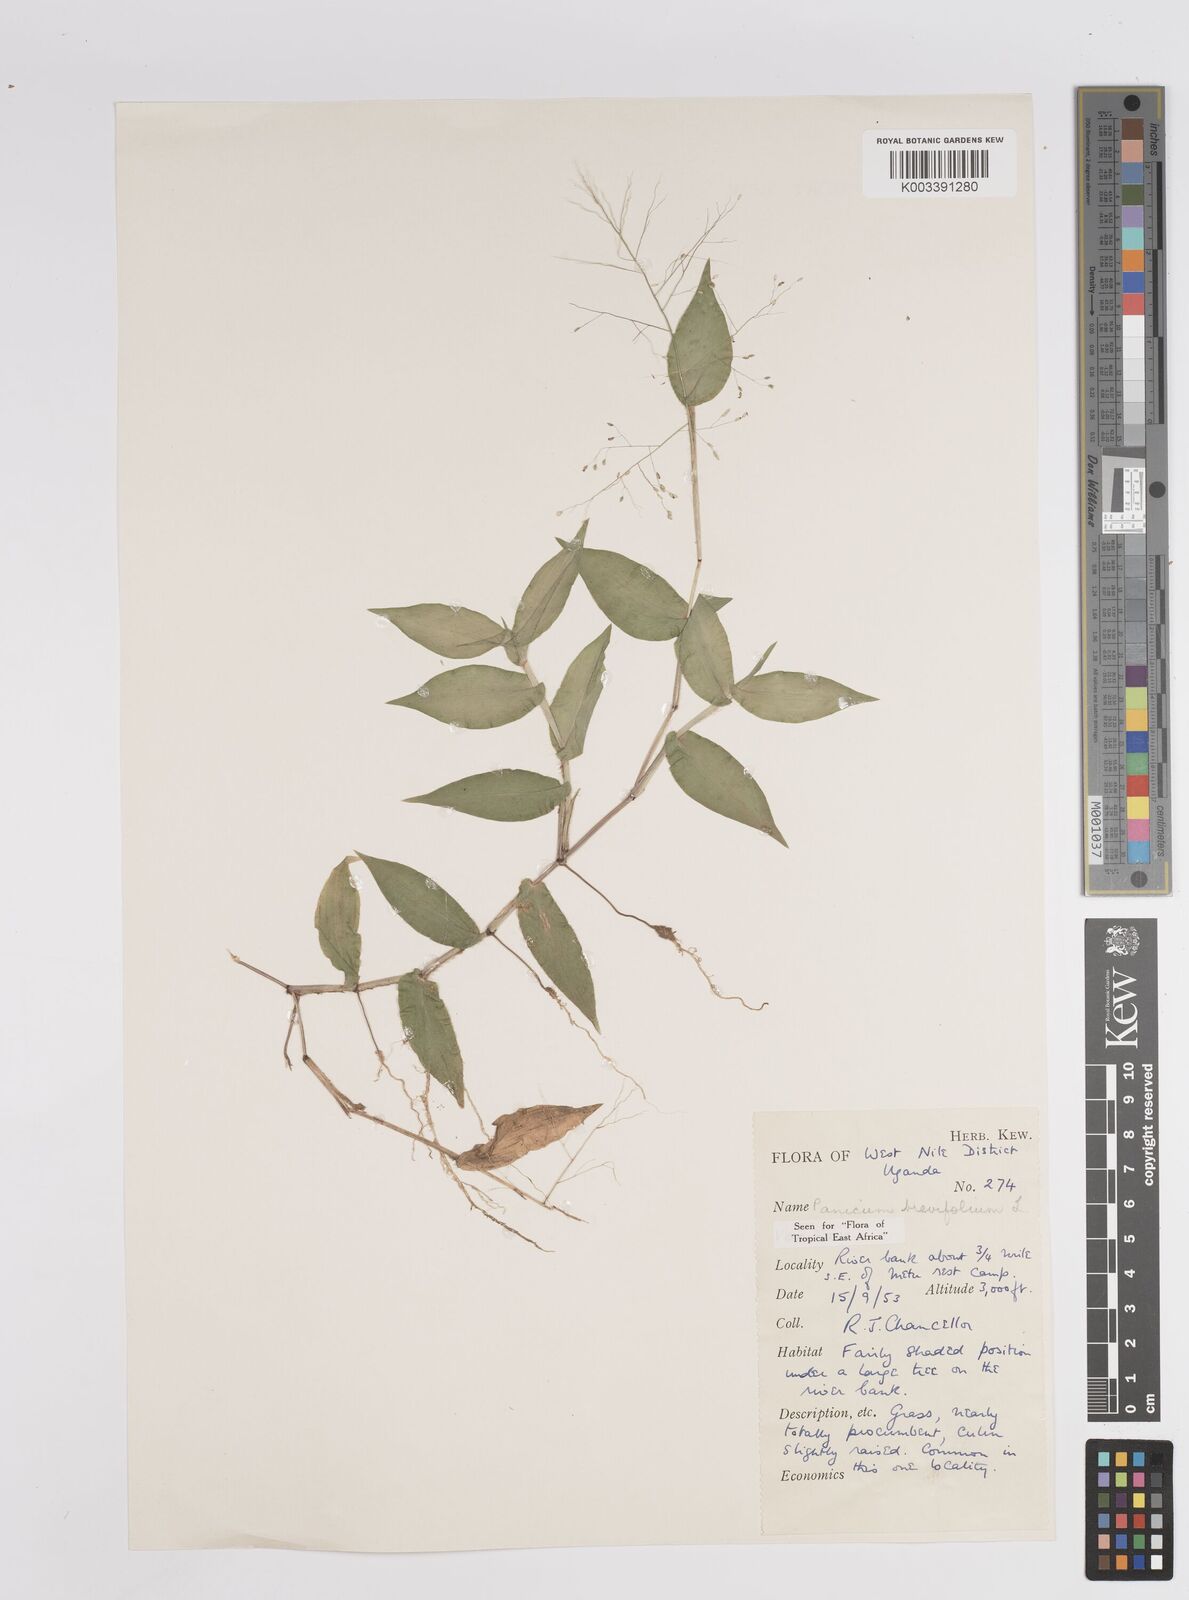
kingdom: Plantae
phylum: Tracheophyta
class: Liliopsida
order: Poales
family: Poaceae
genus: Panicum
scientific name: Panicum brevifolium
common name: Shortleaf panic grass
